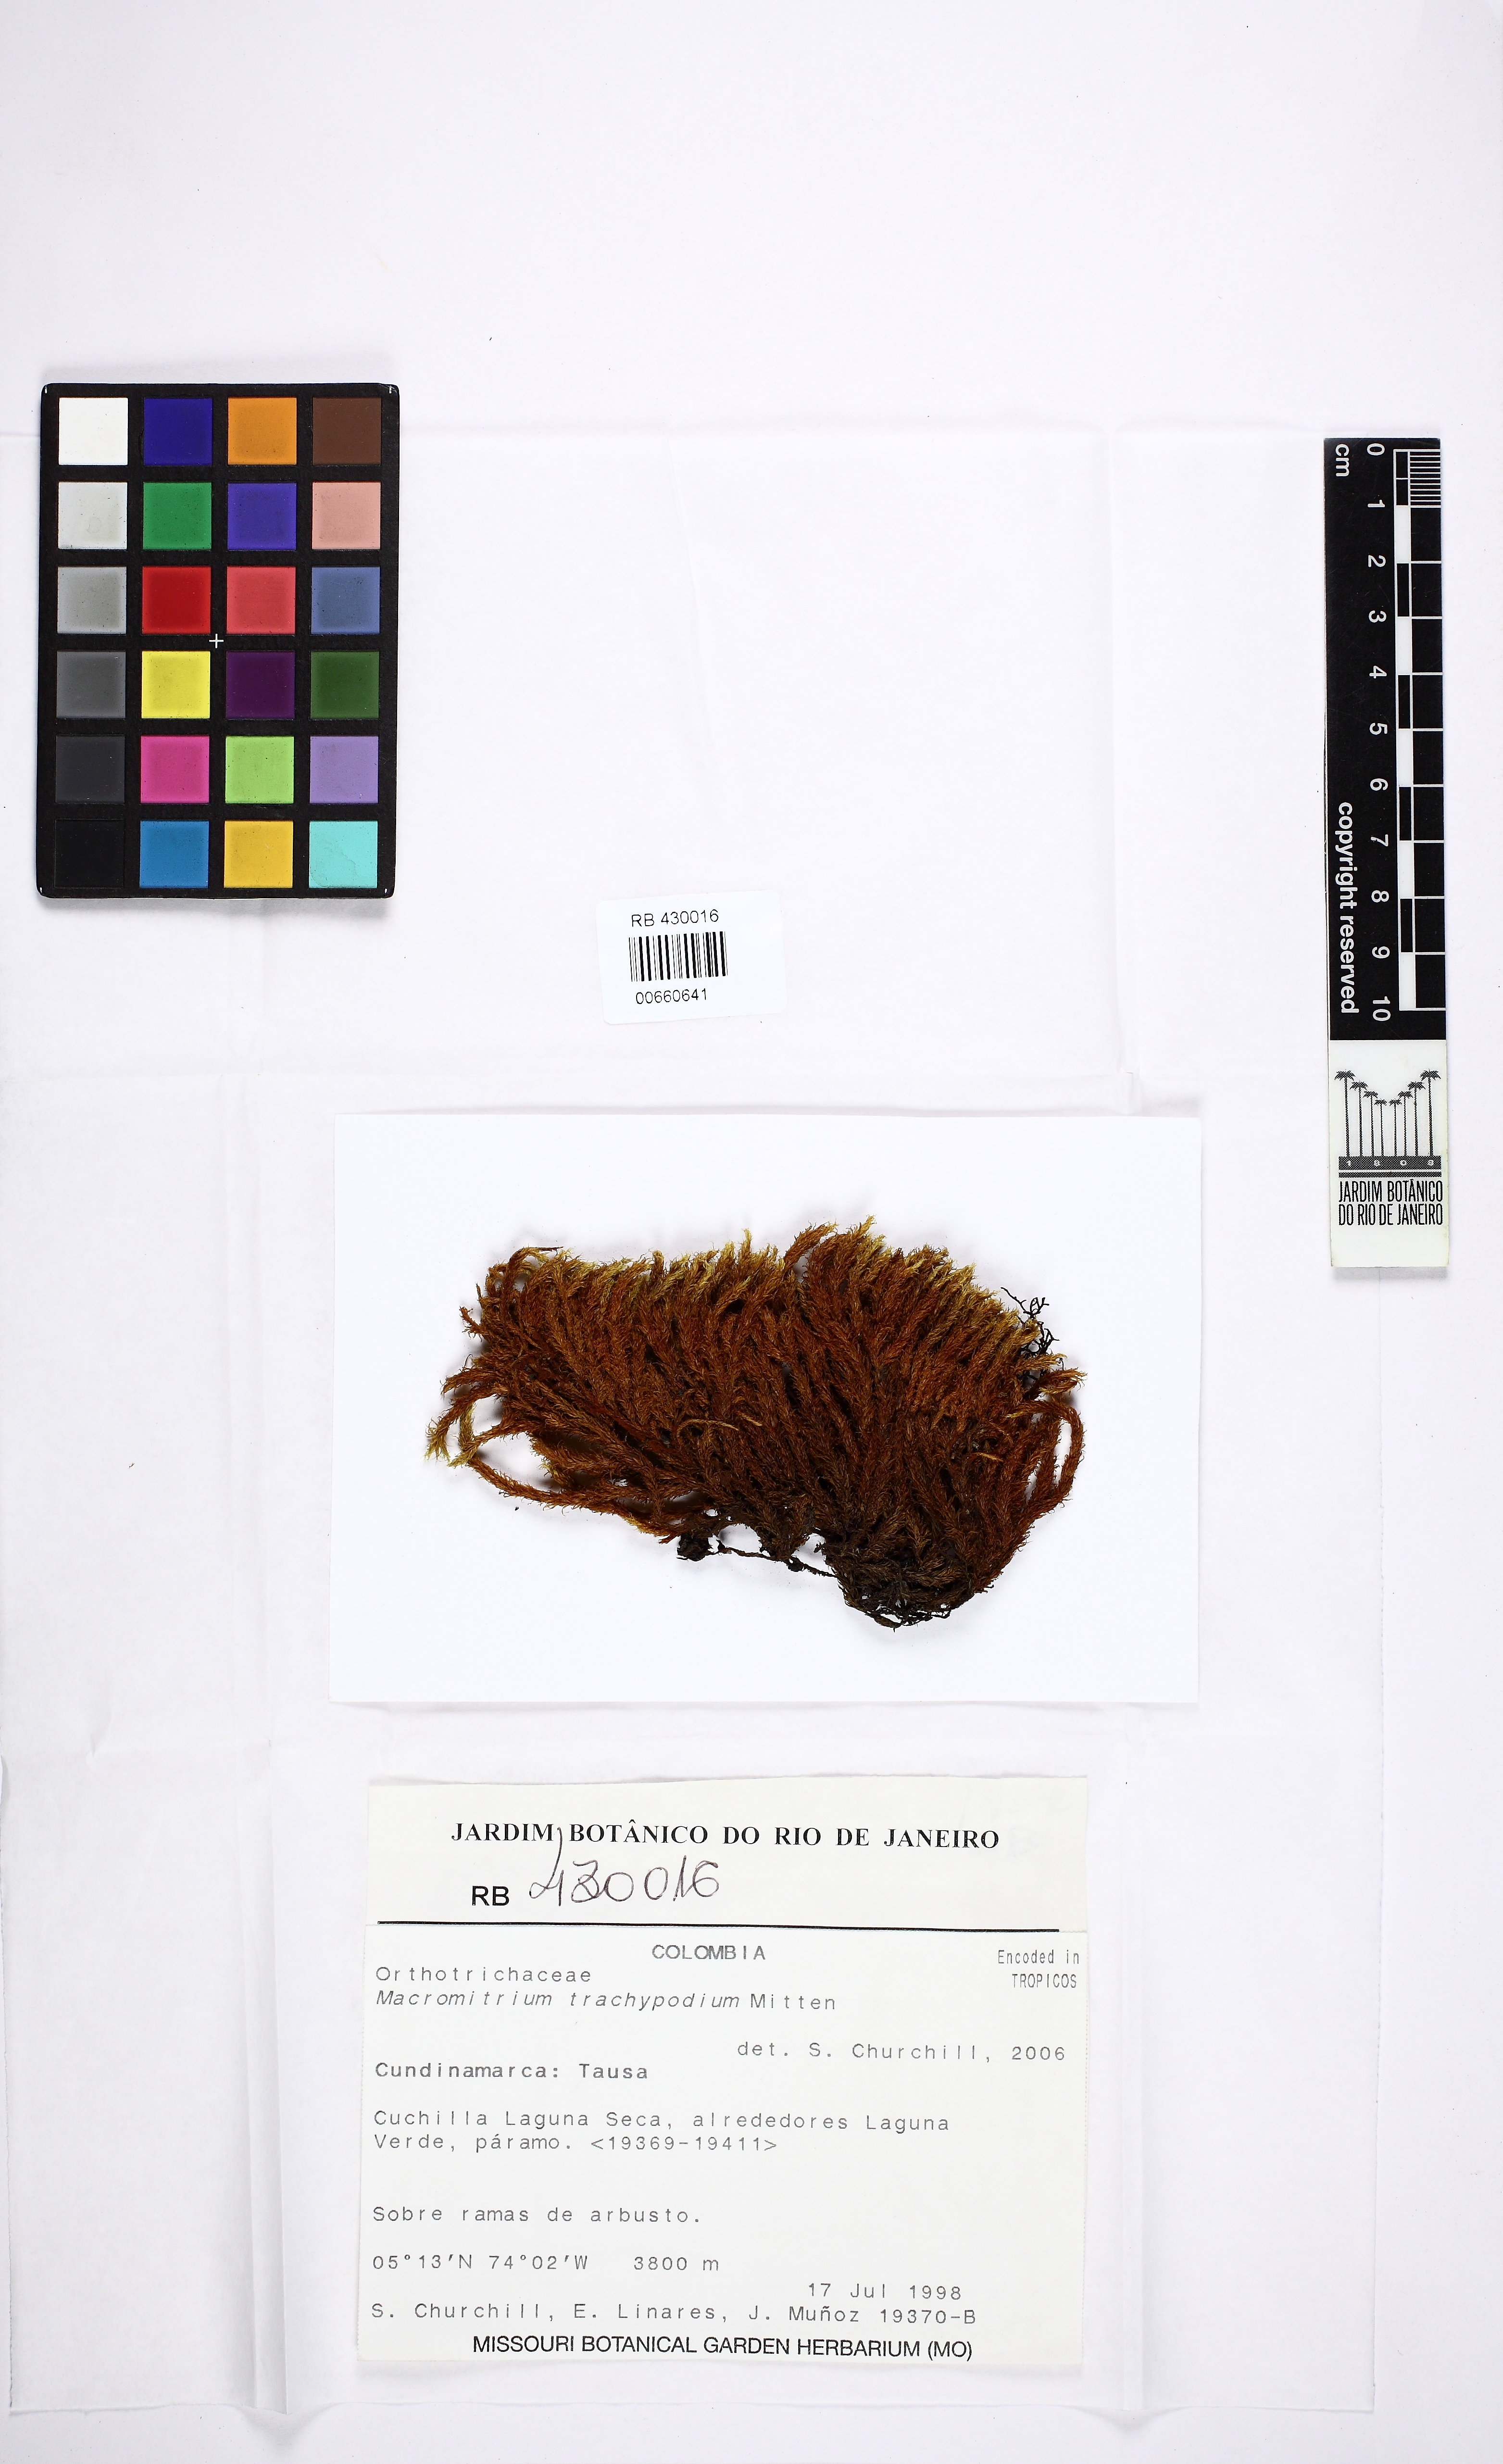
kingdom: Plantae
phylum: Bryophyta
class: Bryopsida
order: Orthotrichales
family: Orthotrichaceae
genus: Macromitrium
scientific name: Macromitrium trachypodium
